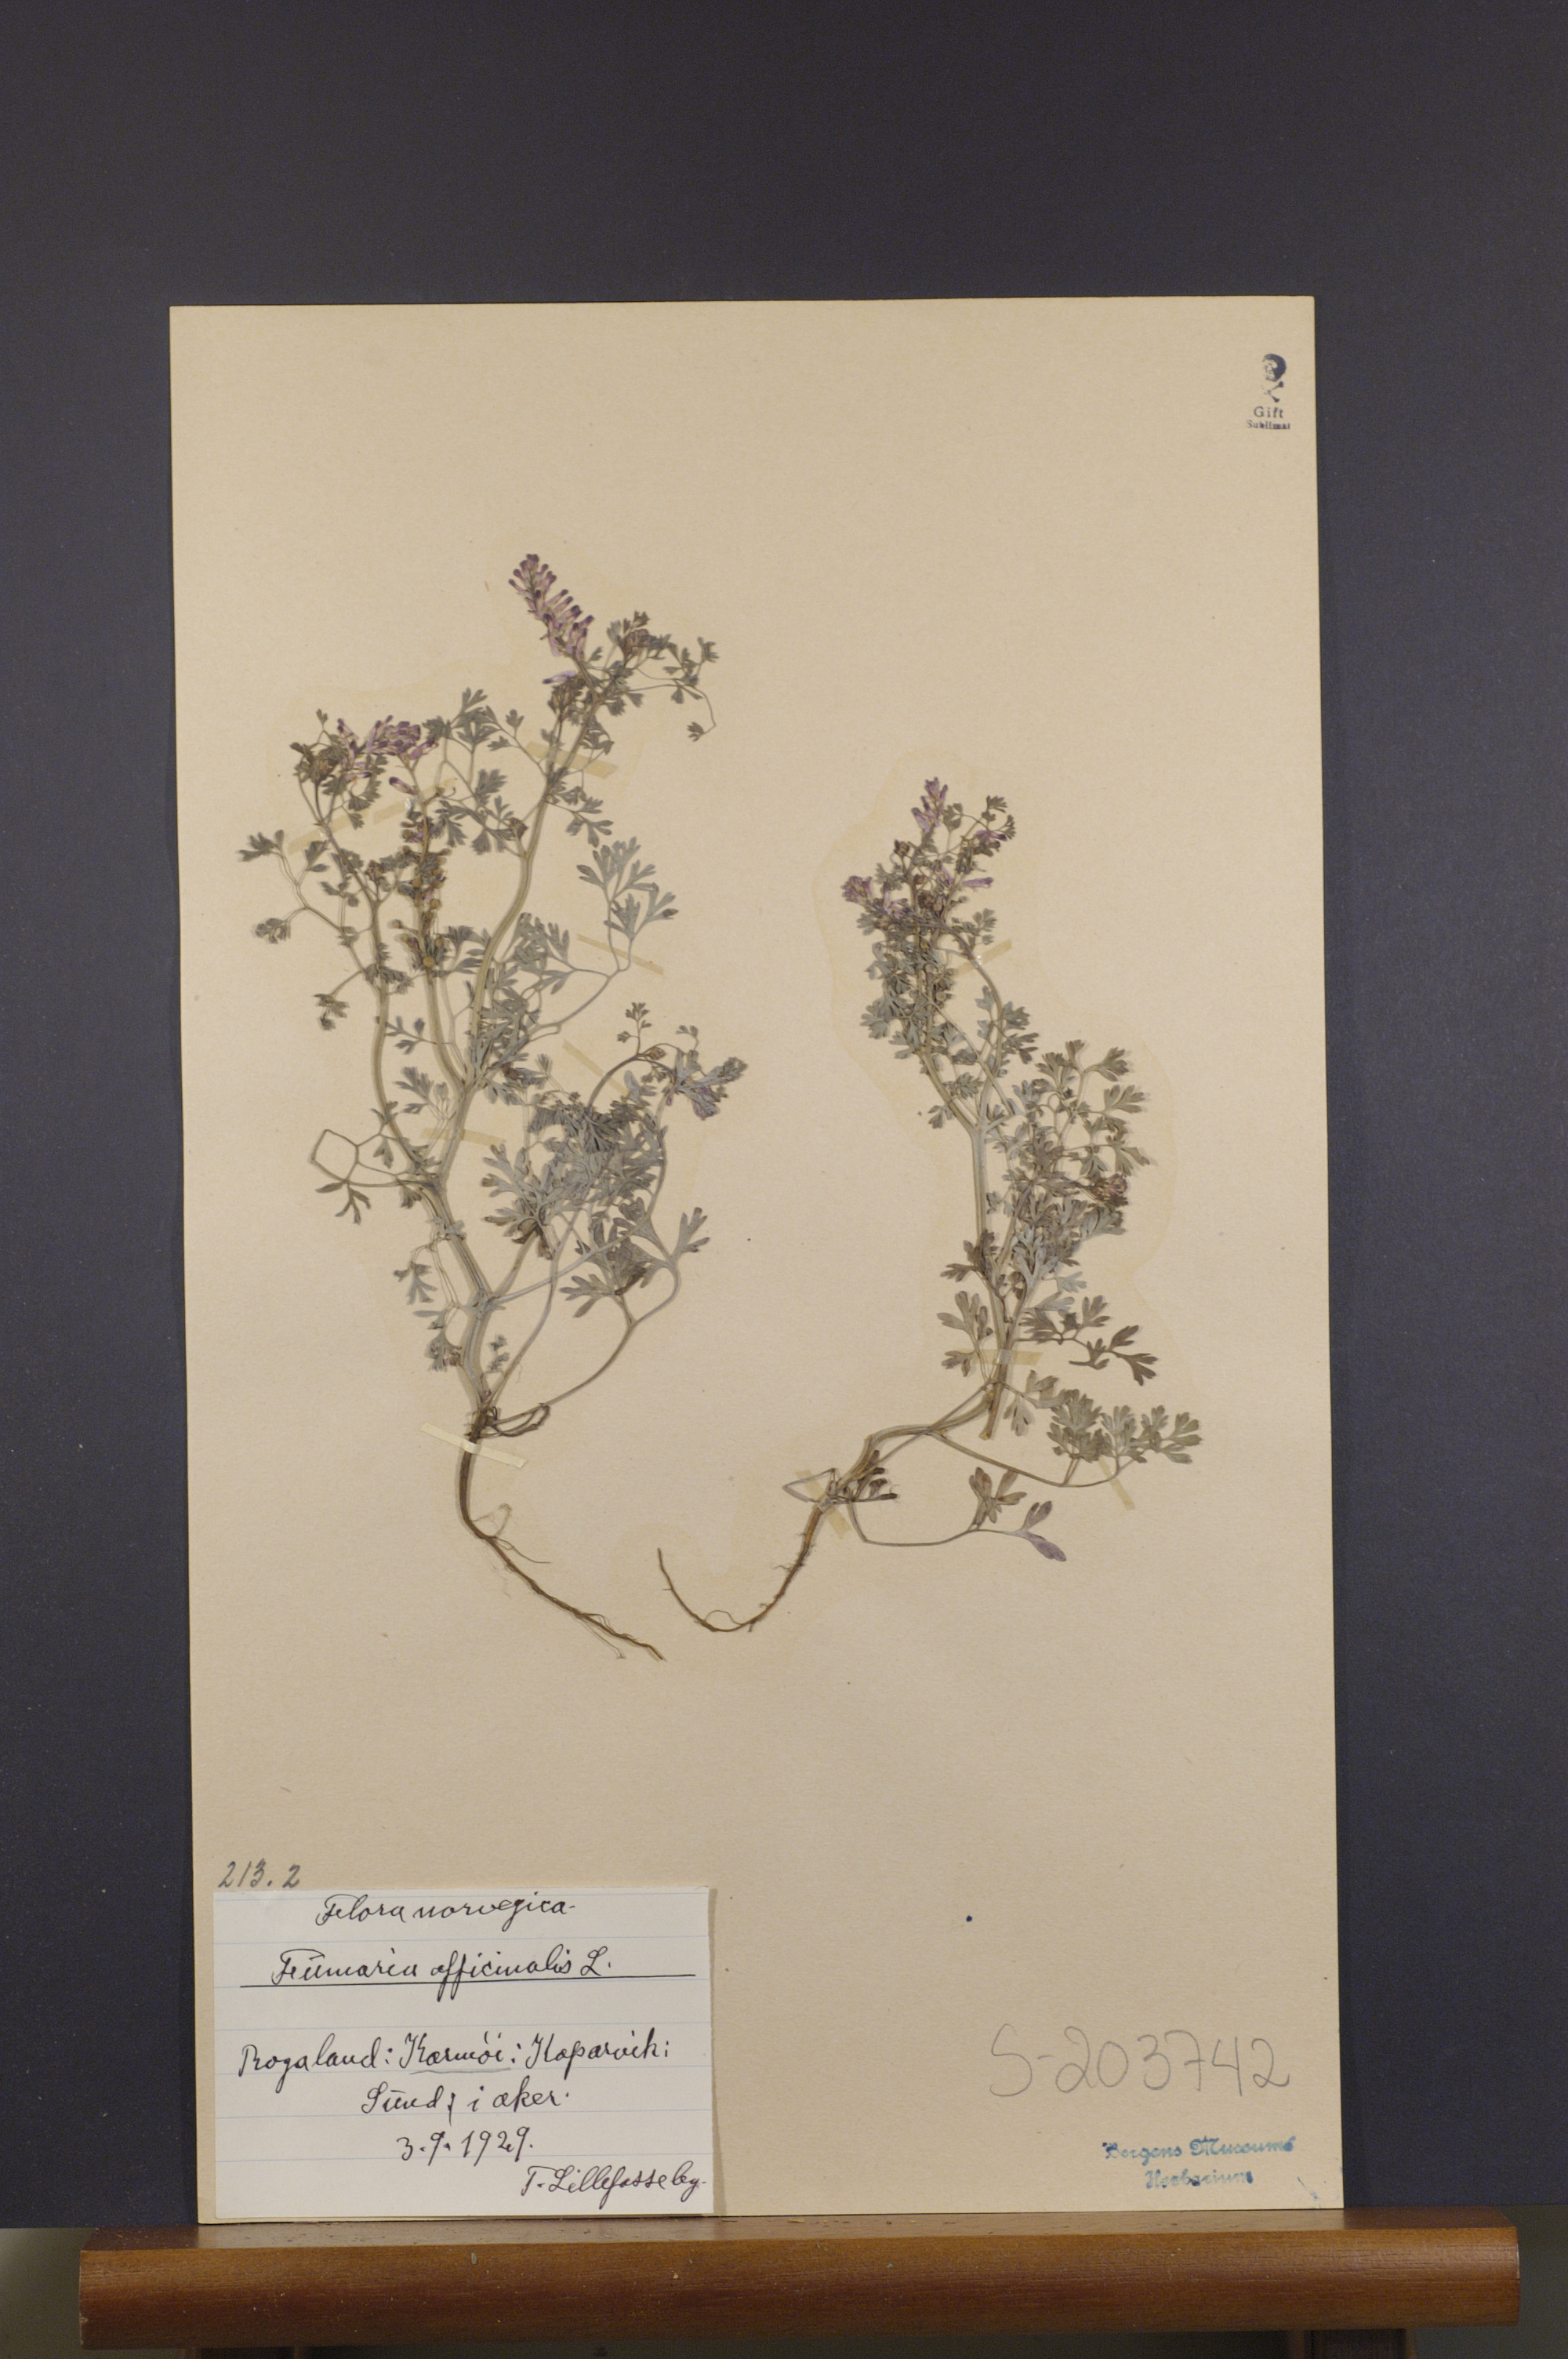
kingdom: Plantae
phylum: Tracheophyta
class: Magnoliopsida
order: Ranunculales
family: Papaveraceae
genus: Fumaria
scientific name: Fumaria officinalis
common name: Common fumitory
